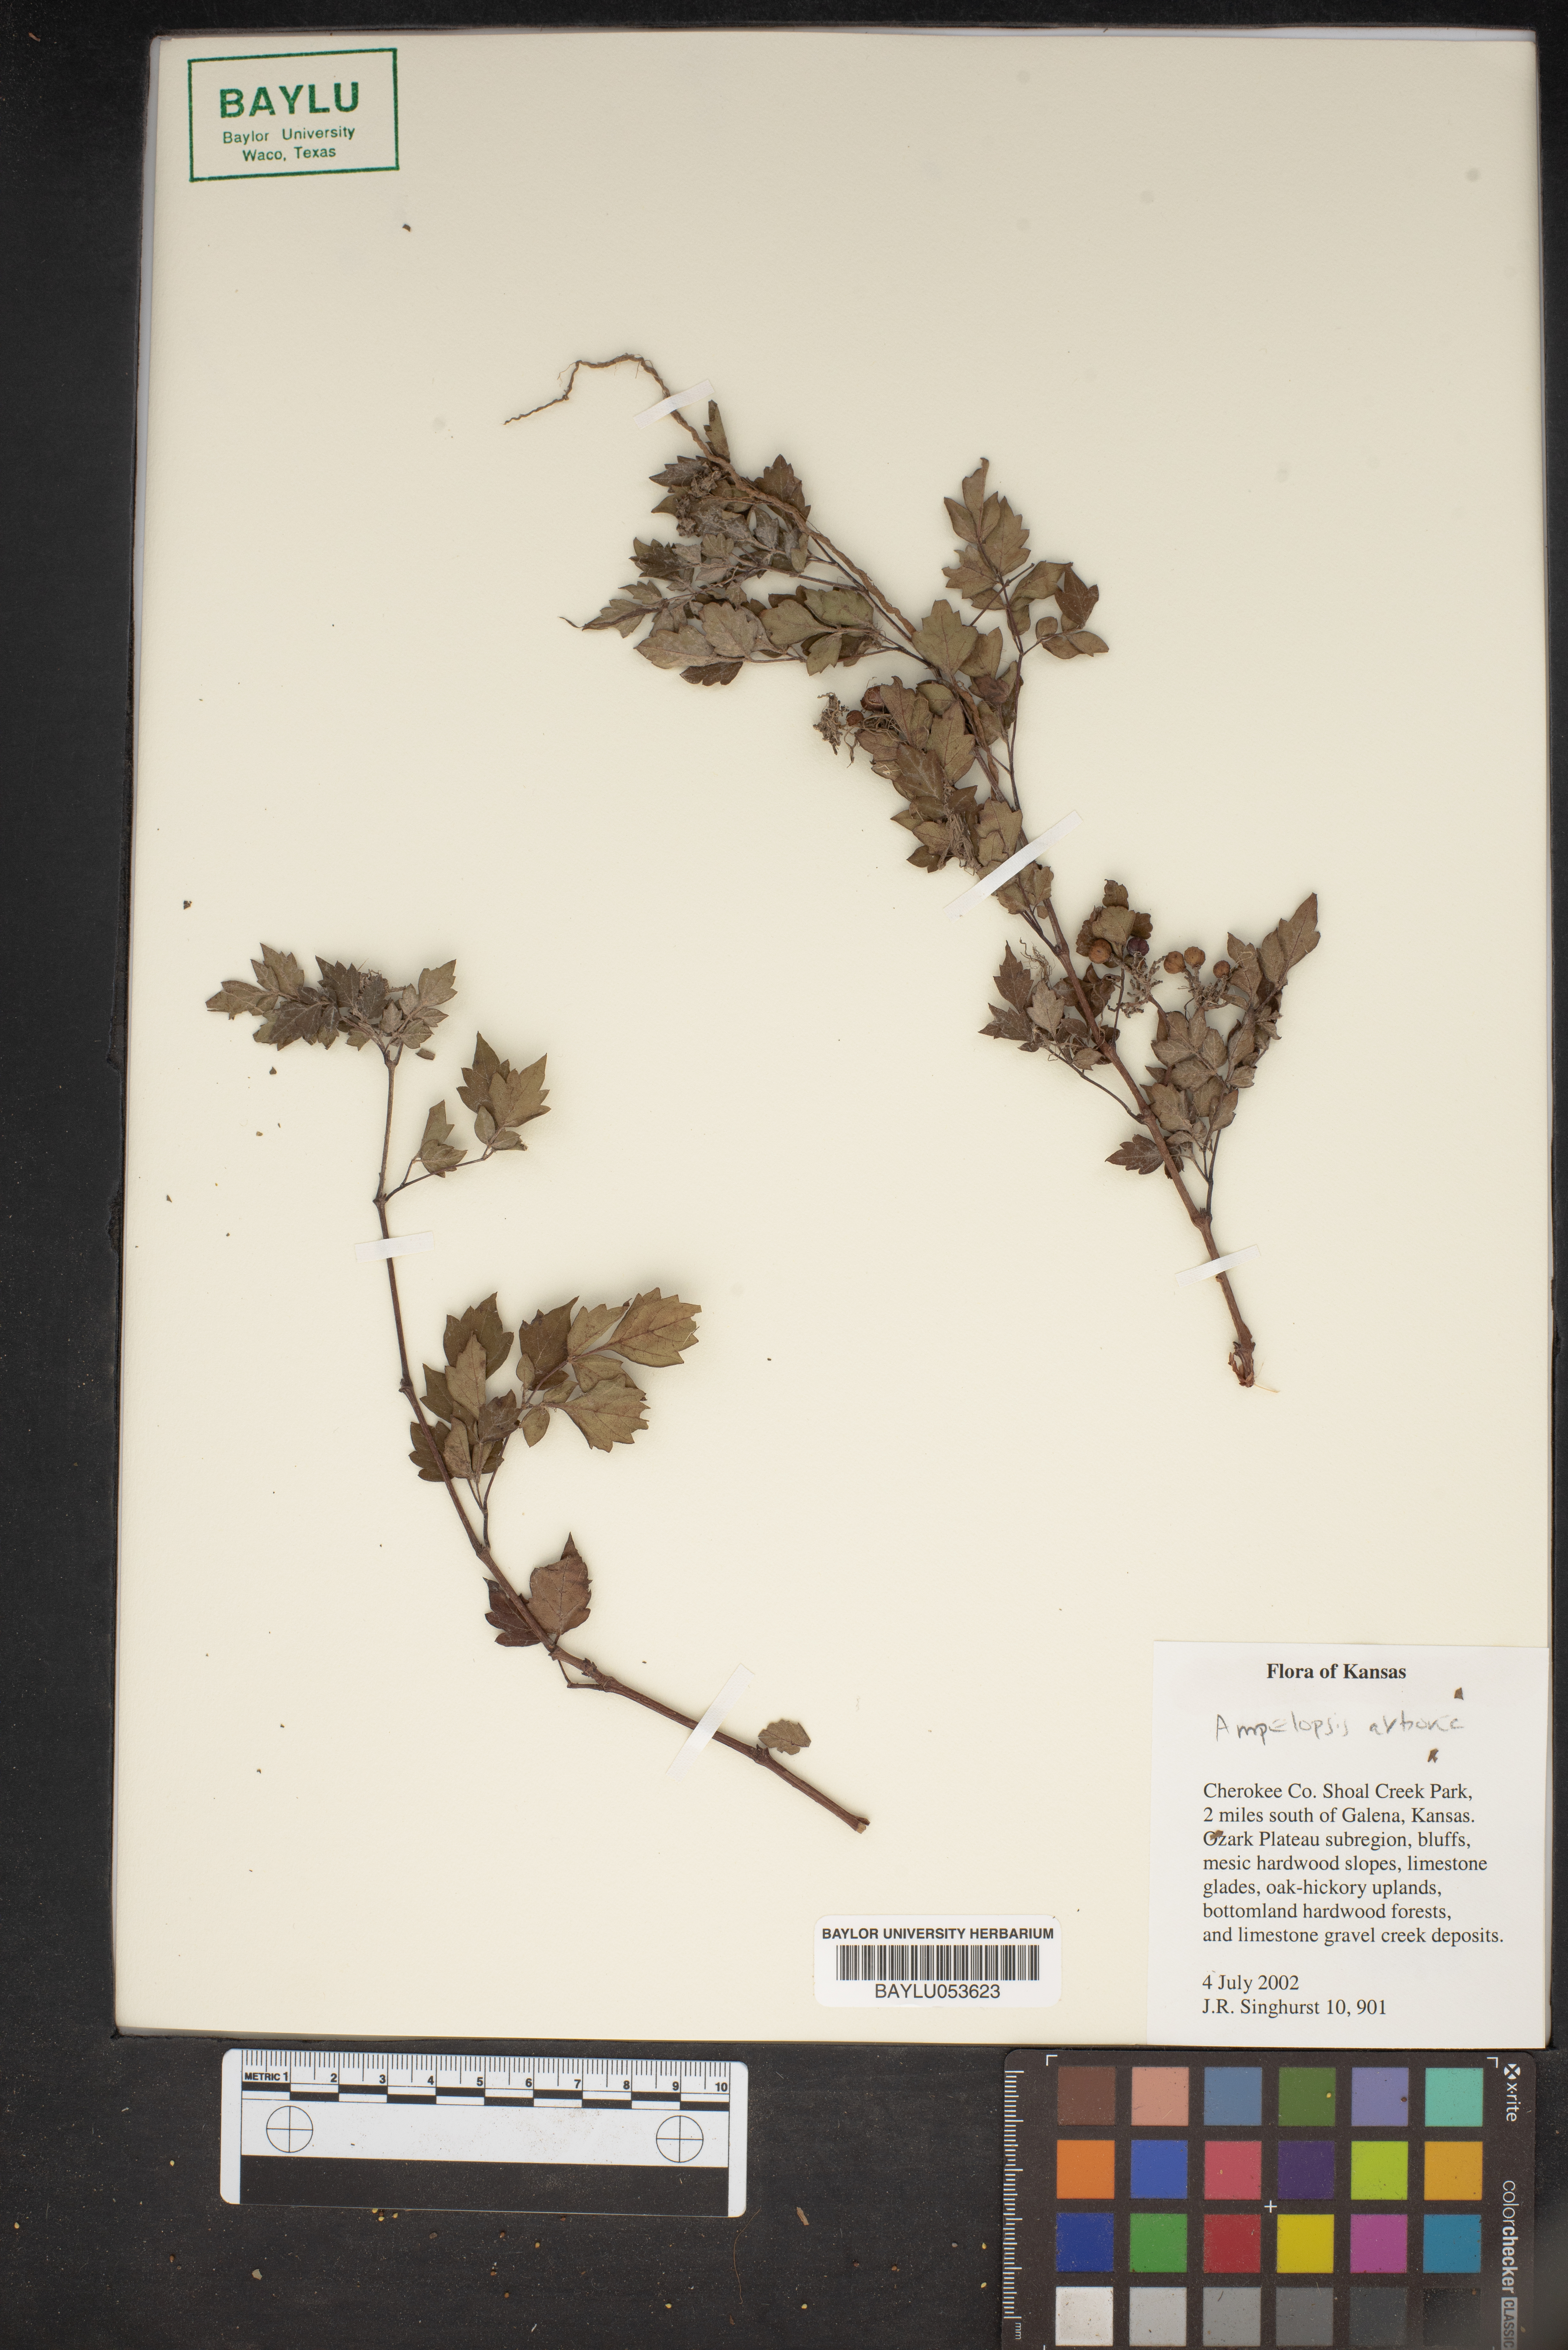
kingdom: Plantae
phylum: Tracheophyta
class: Magnoliopsida
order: Vitales
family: Vitaceae
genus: Nekemias
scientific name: Nekemias arborea
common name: Peppervine
